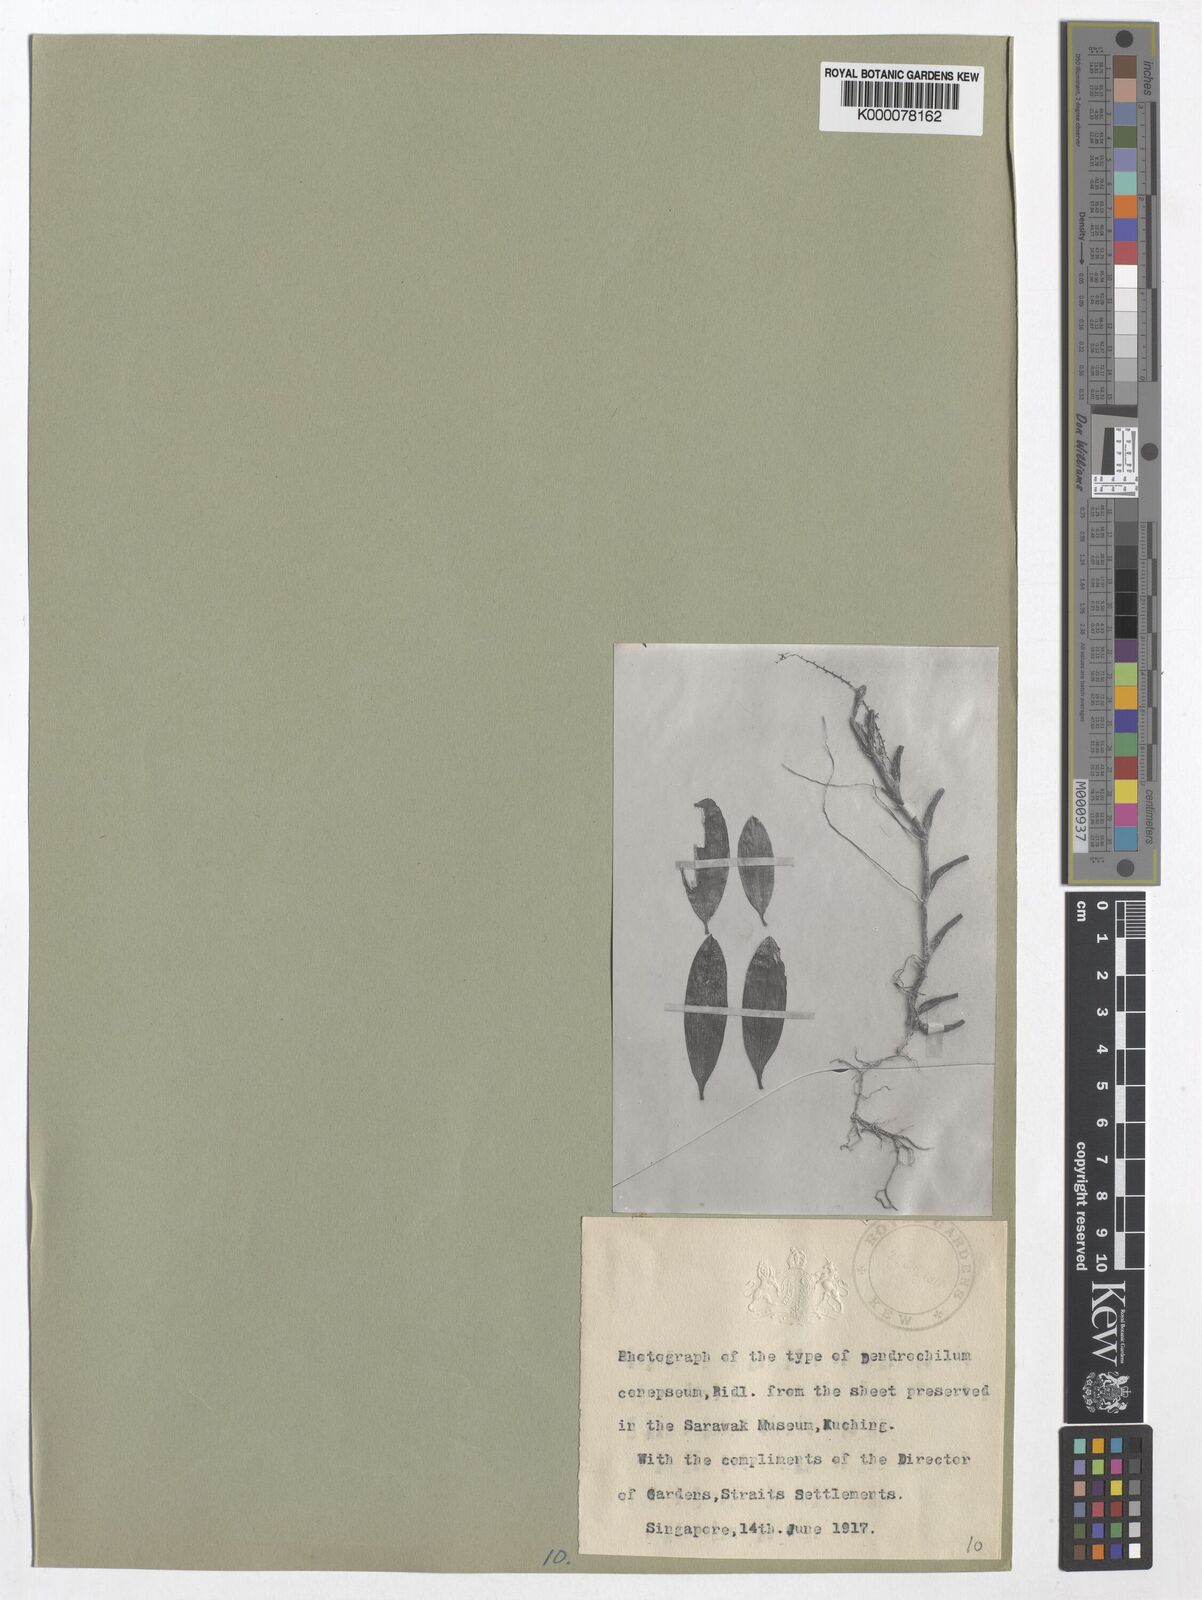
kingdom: Plantae
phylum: Tracheophyta
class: Liliopsida
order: Asparagales
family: Orchidaceae
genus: Coelogyne
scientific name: Coelogyne pallidiflavens
